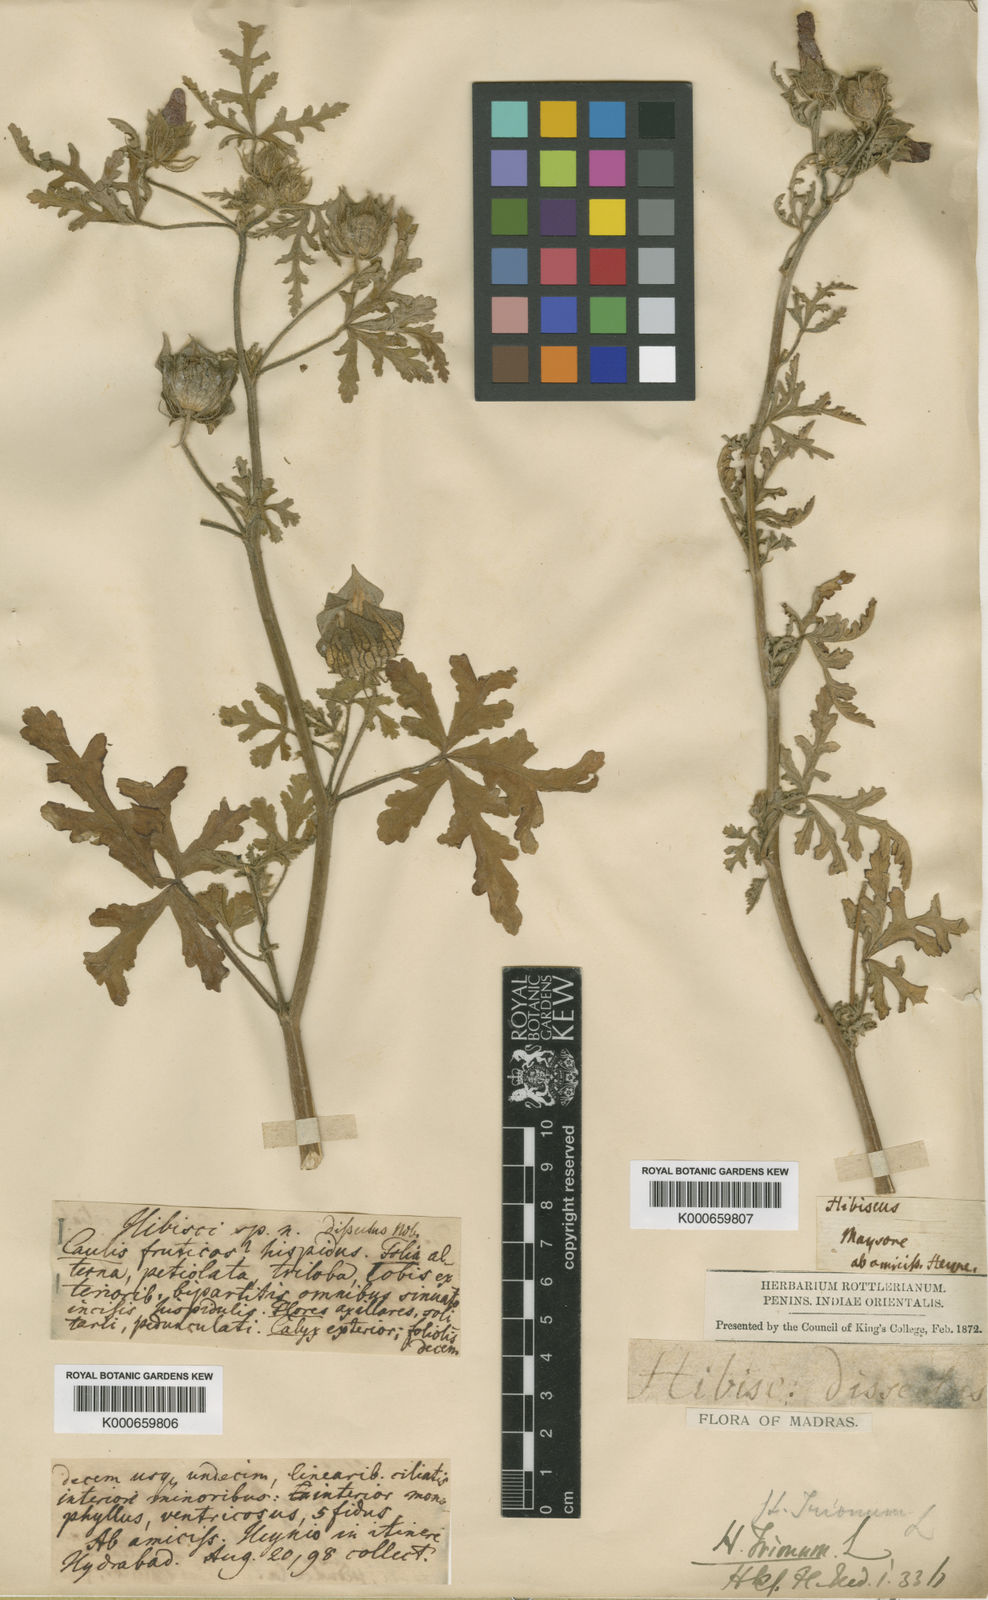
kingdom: Plantae
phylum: Tracheophyta
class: Magnoliopsida
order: Malvales
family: Malvaceae
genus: Hibiscus
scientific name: Hibiscus trionum
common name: Bladder ketmia
